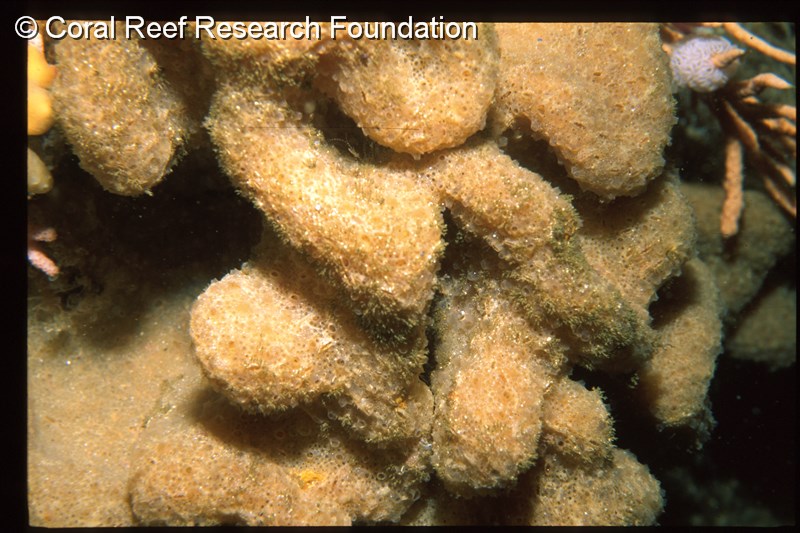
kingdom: Animalia
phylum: Chordata
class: Ascidiacea
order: Aplousobranchia
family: Polyclinidae
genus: Polyclinum
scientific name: Polyclinum isipingense
